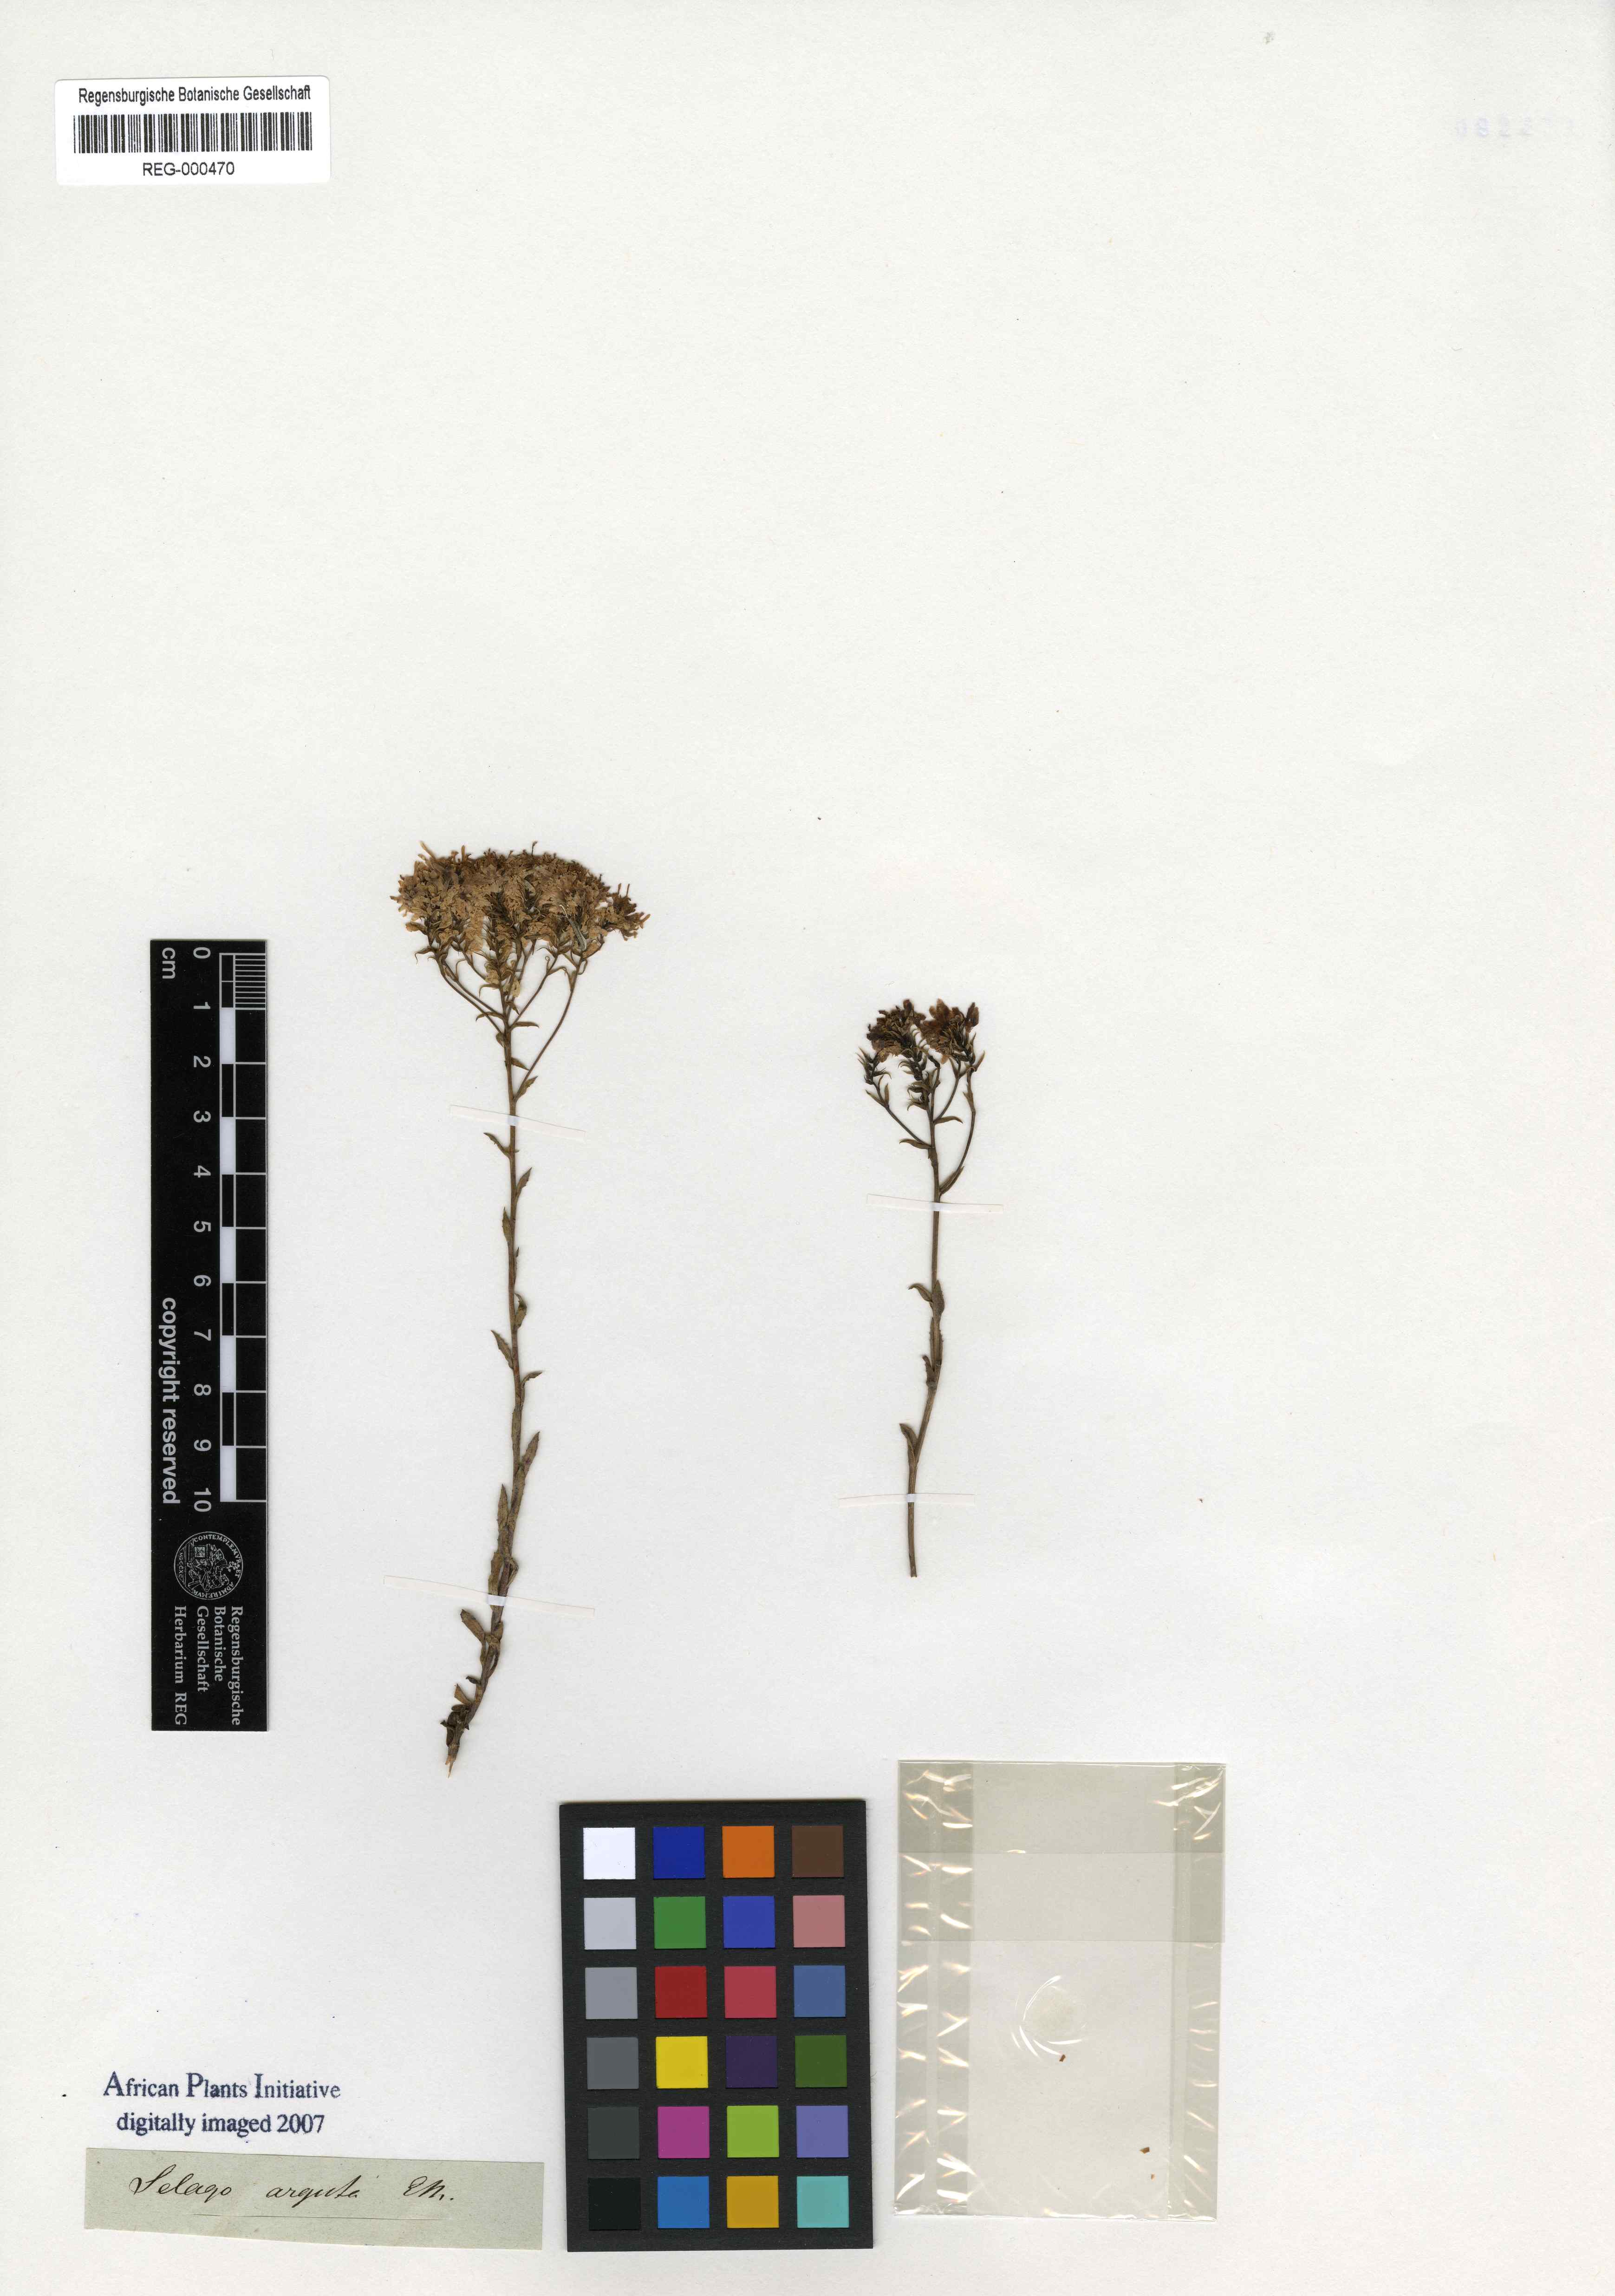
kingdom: Plantae
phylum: Tracheophyta
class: Magnoliopsida
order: Lamiales
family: Scrophulariaceae
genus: Pseudoselago
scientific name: Pseudoselago arguta
